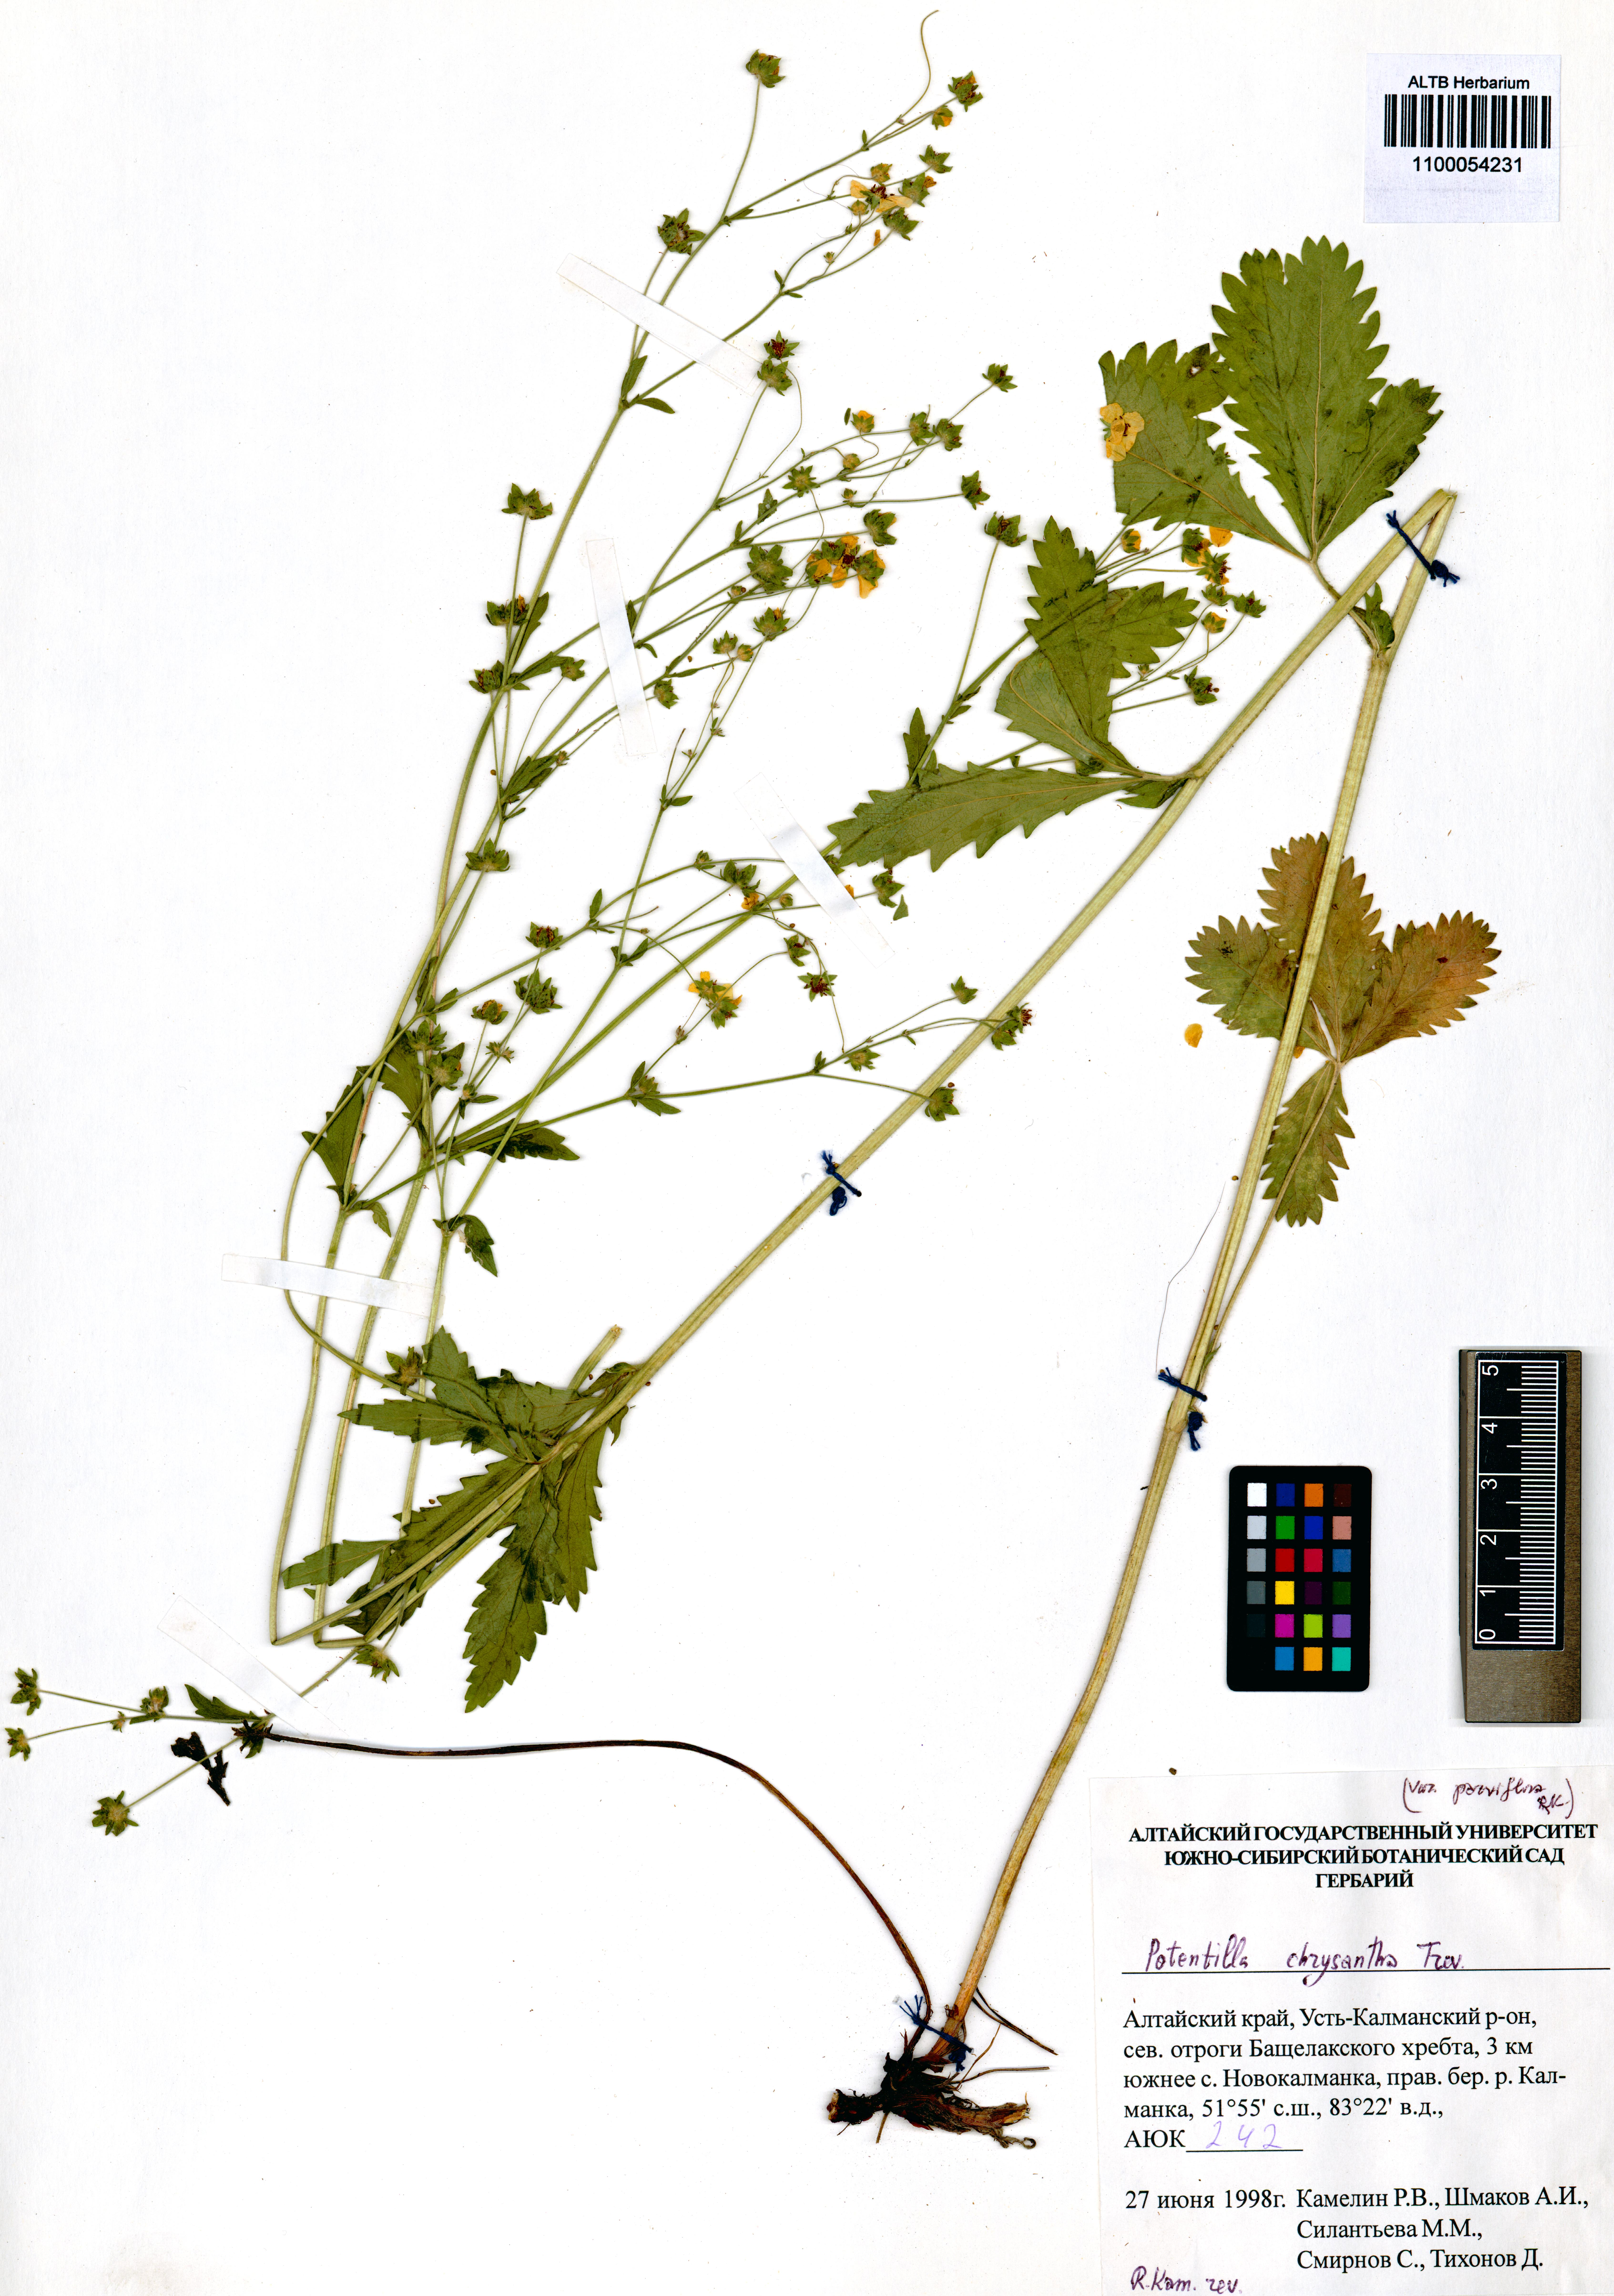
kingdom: Plantae
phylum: Tracheophyta
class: Magnoliopsida
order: Rosales
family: Rosaceae
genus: Potentilla
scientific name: Potentilla chrysantha
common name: Thuringian cinquefoil
